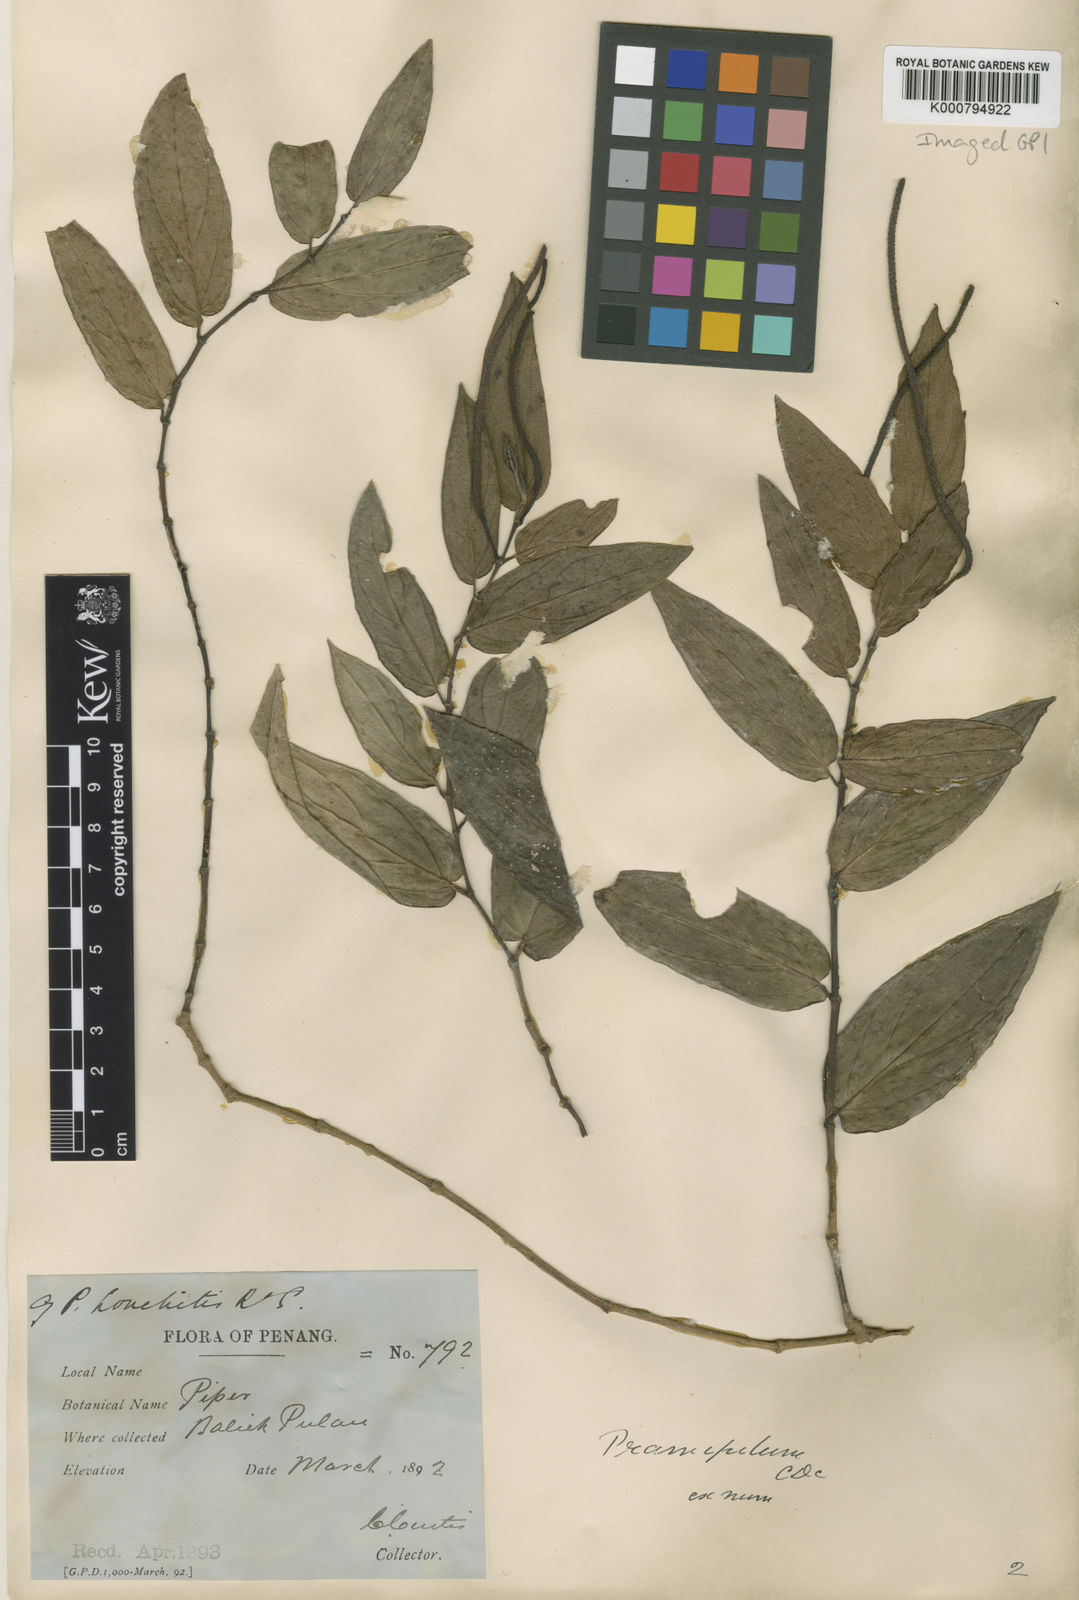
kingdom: Plantae
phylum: Tracheophyta
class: Magnoliopsida
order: Piperales
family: Piperaceae
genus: Piper
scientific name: Piper frustratum
